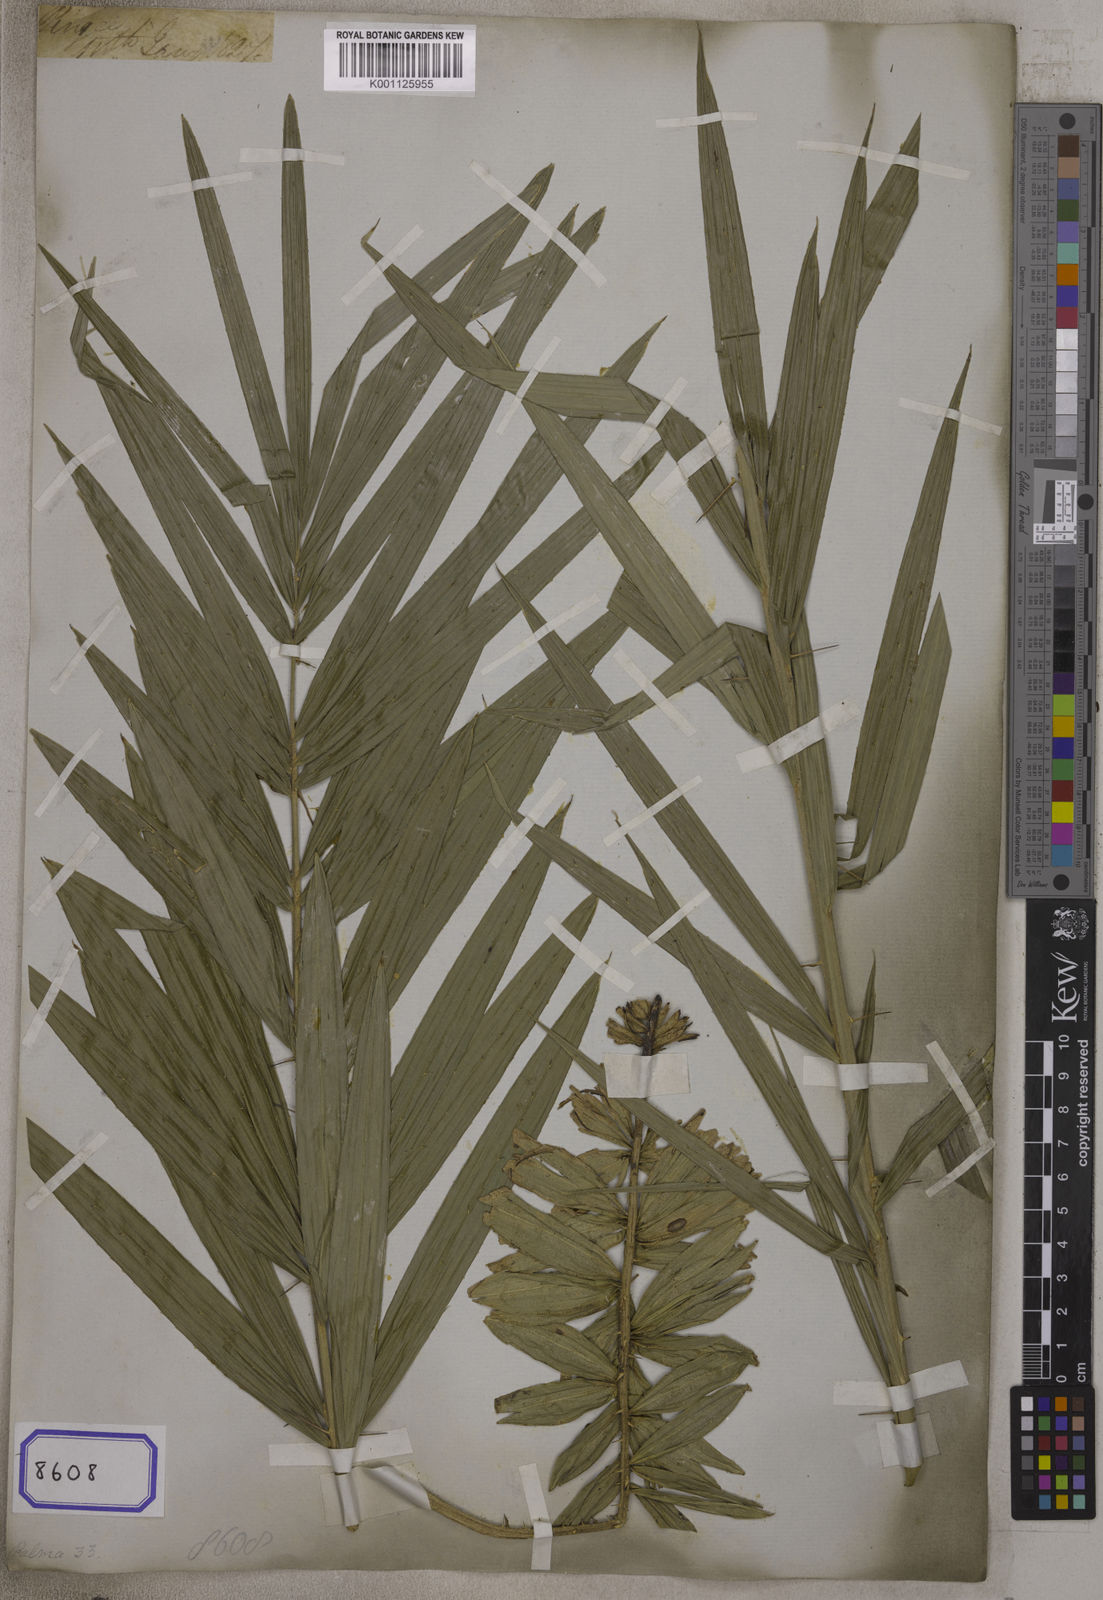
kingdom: Plantae
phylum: Tracheophyta
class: Liliopsida
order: Arecales
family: Arecaceae
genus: Calamus
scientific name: Calamus
